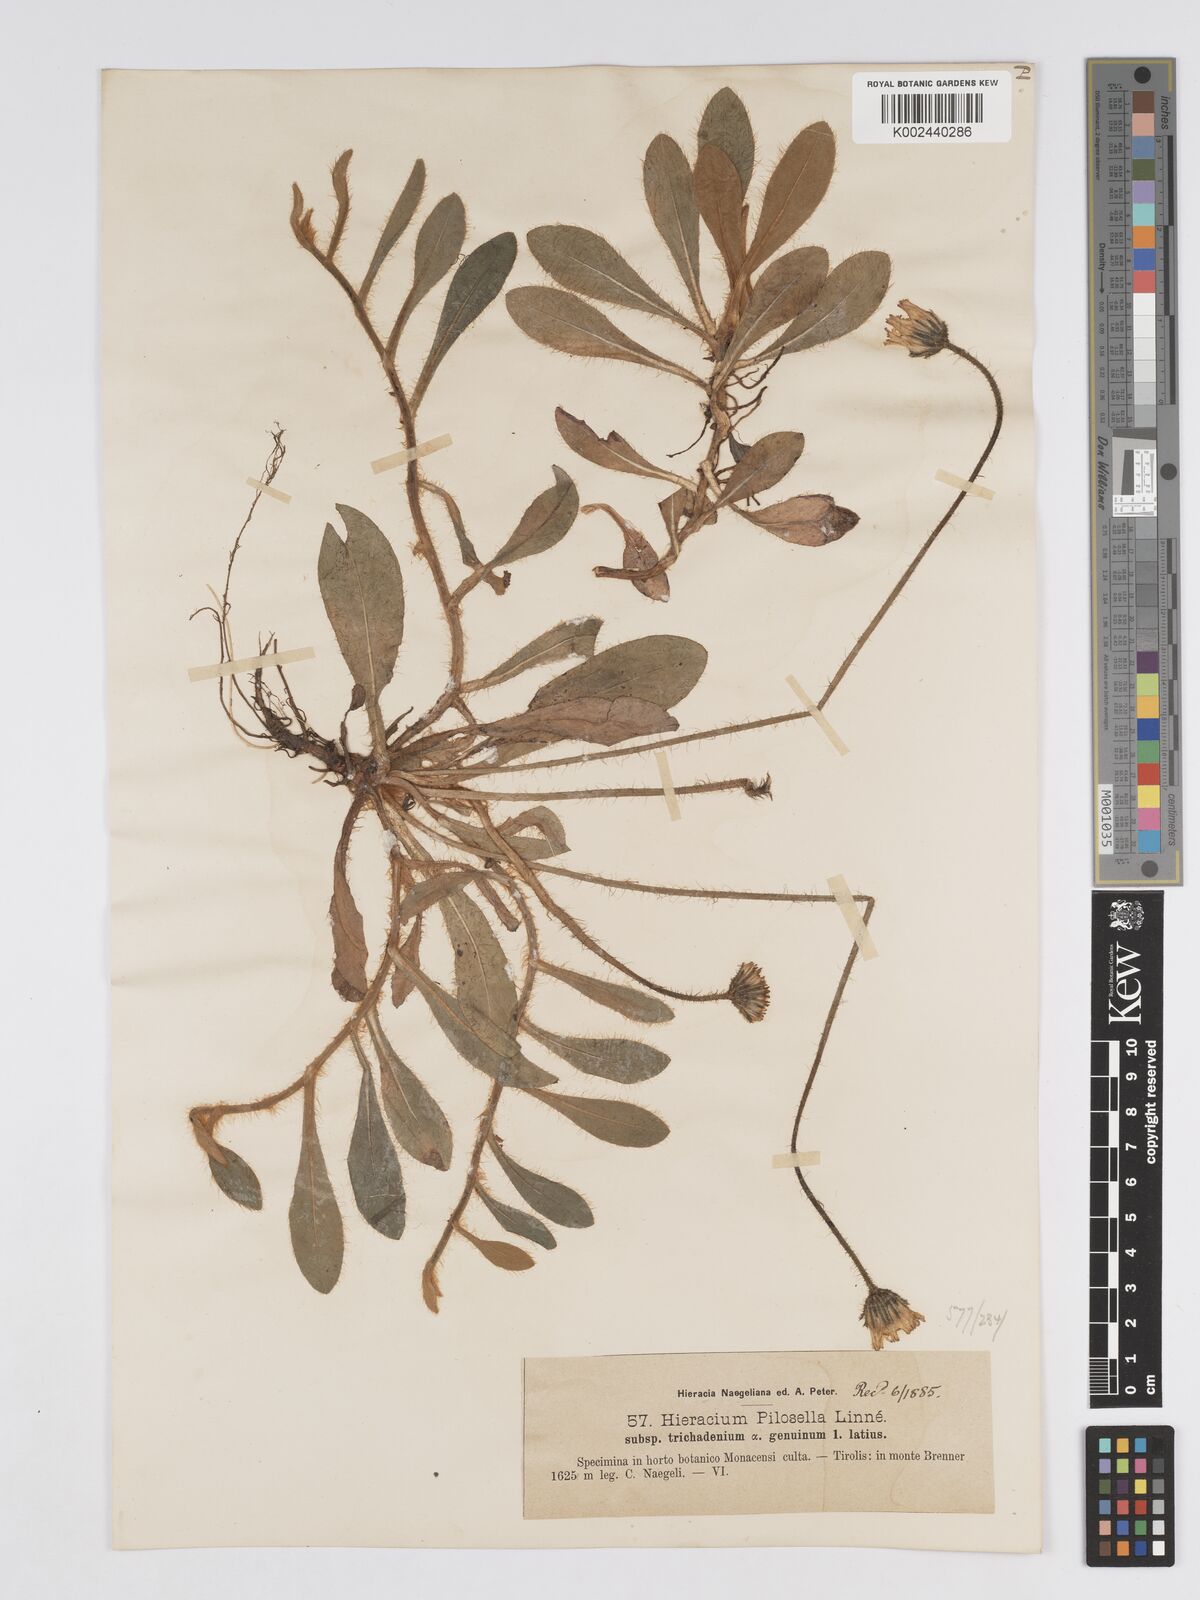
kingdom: Plantae
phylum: Tracheophyta
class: Magnoliopsida
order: Asterales
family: Asteraceae
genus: Pilosella
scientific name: Pilosella officinarum
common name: Mouse-ear hawkweed
